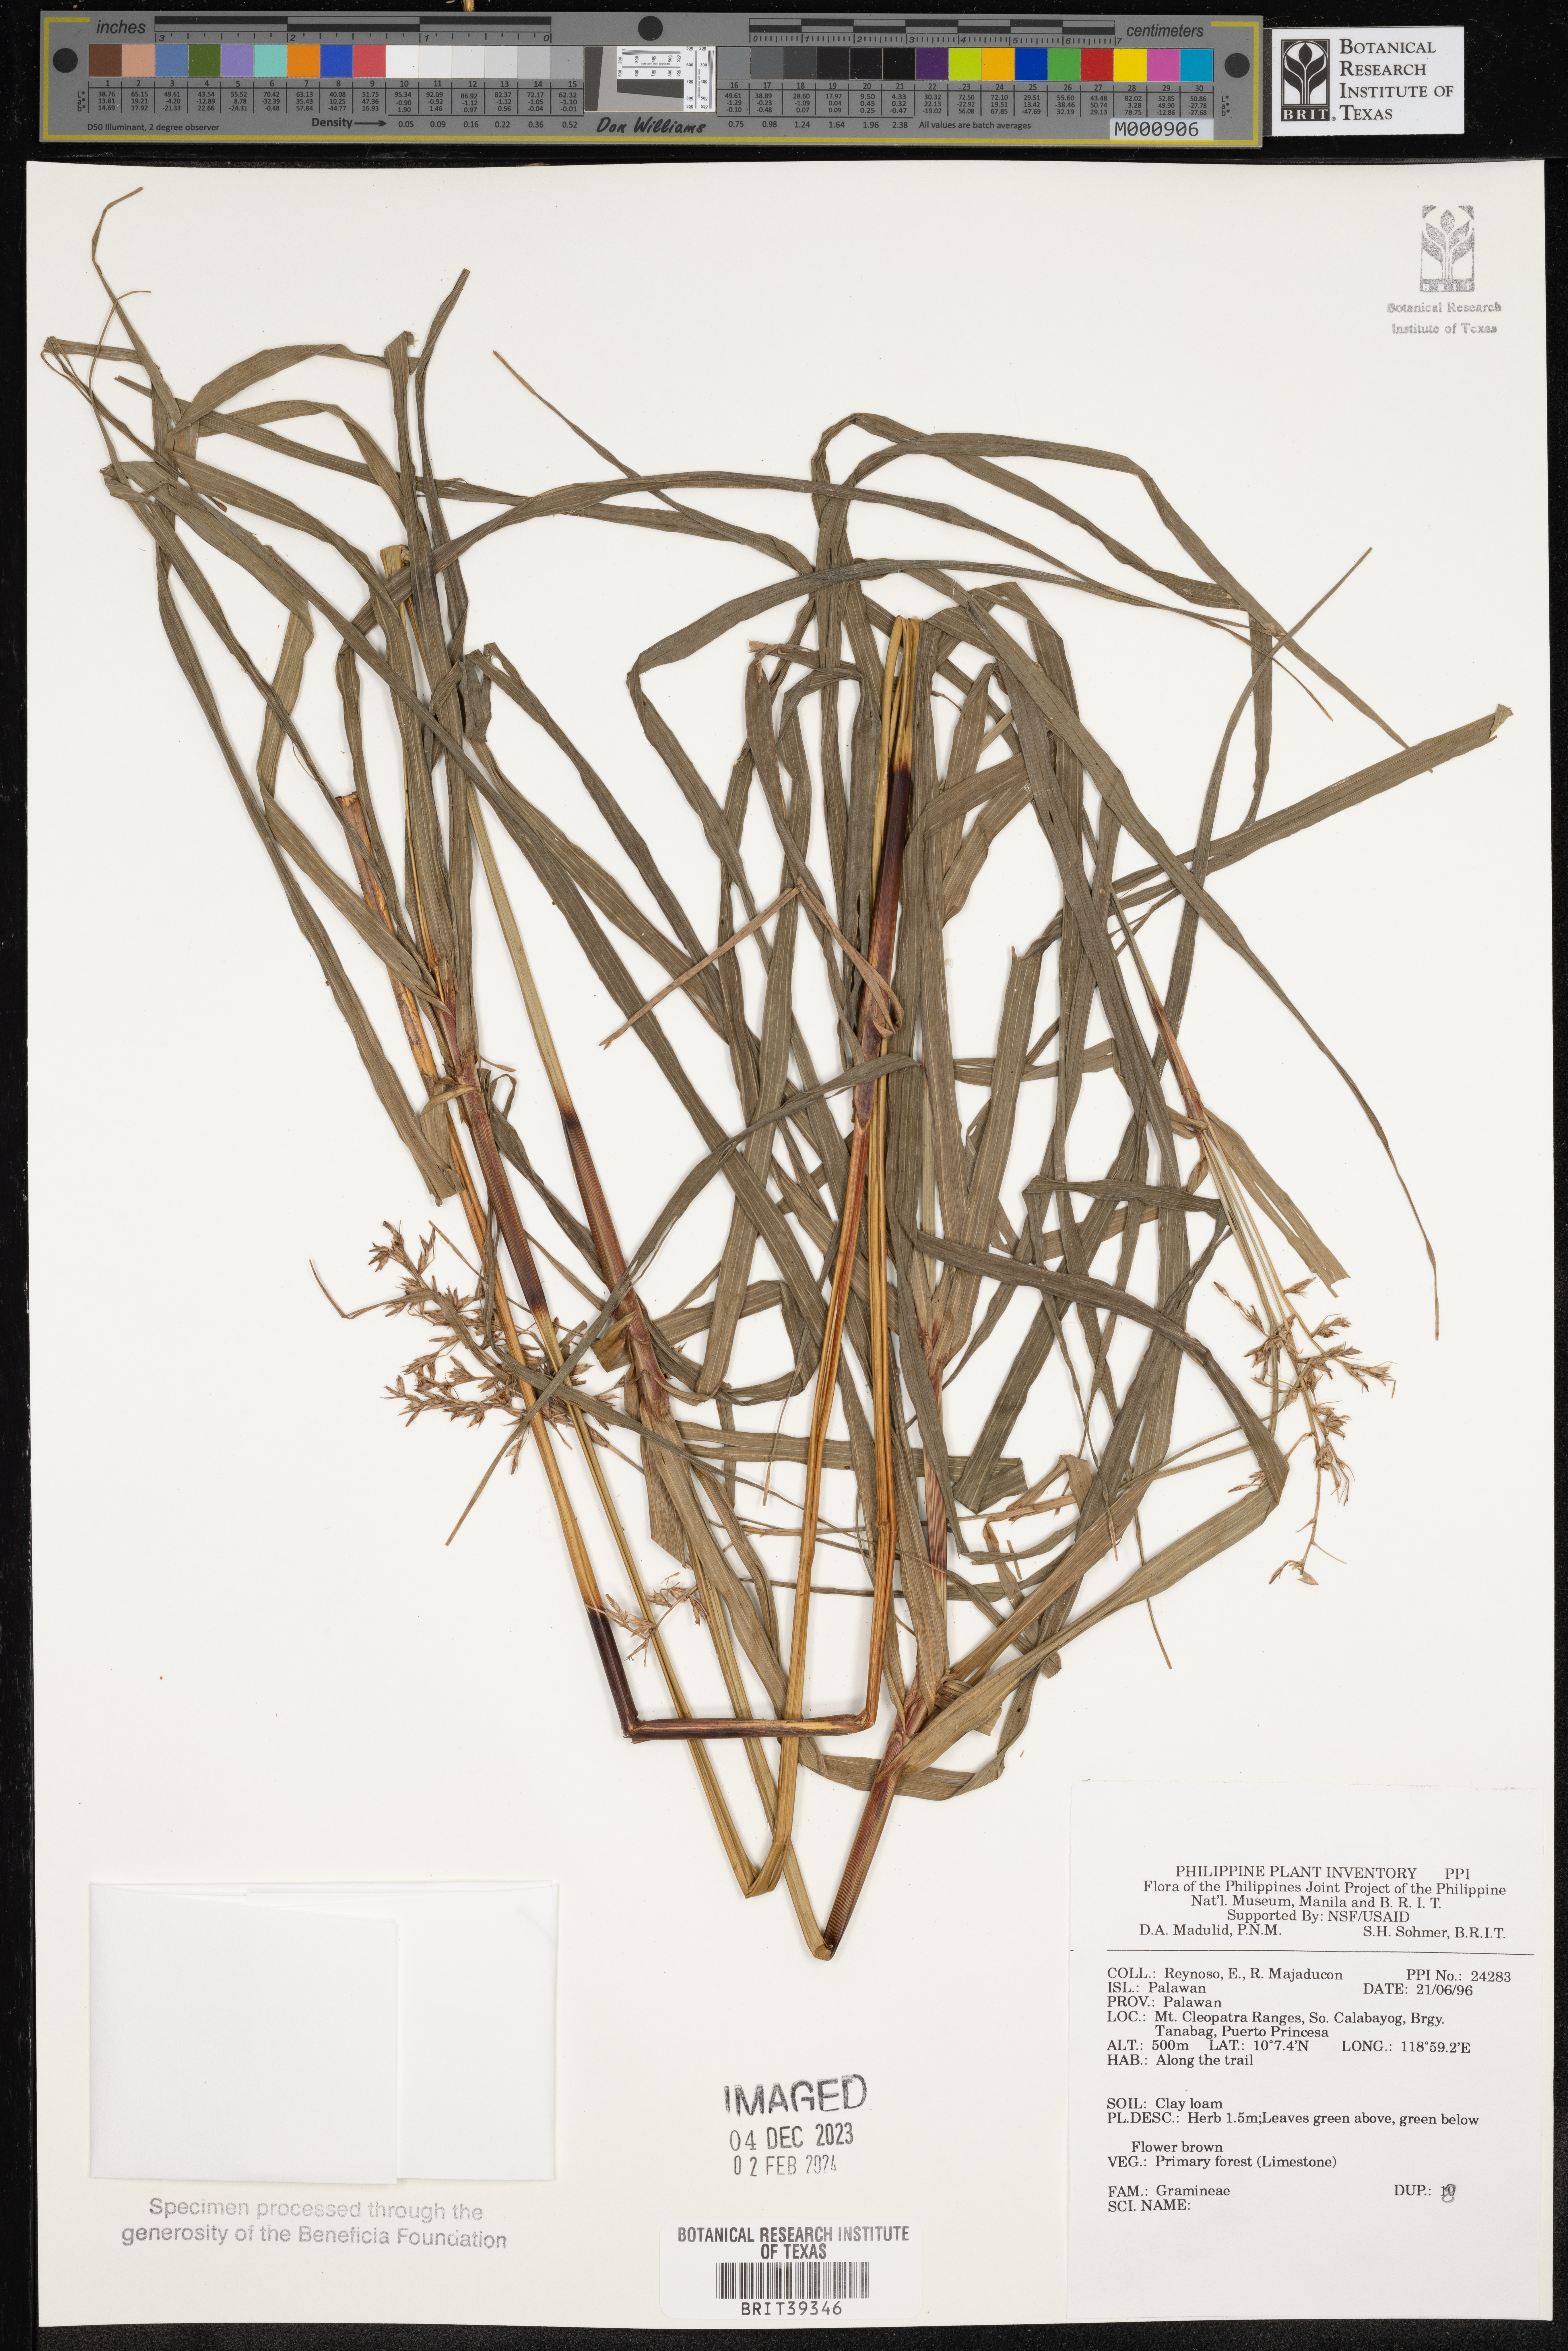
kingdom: Plantae
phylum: Tracheophyta
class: Liliopsida
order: Poales
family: Poaceae
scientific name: Poaceae
